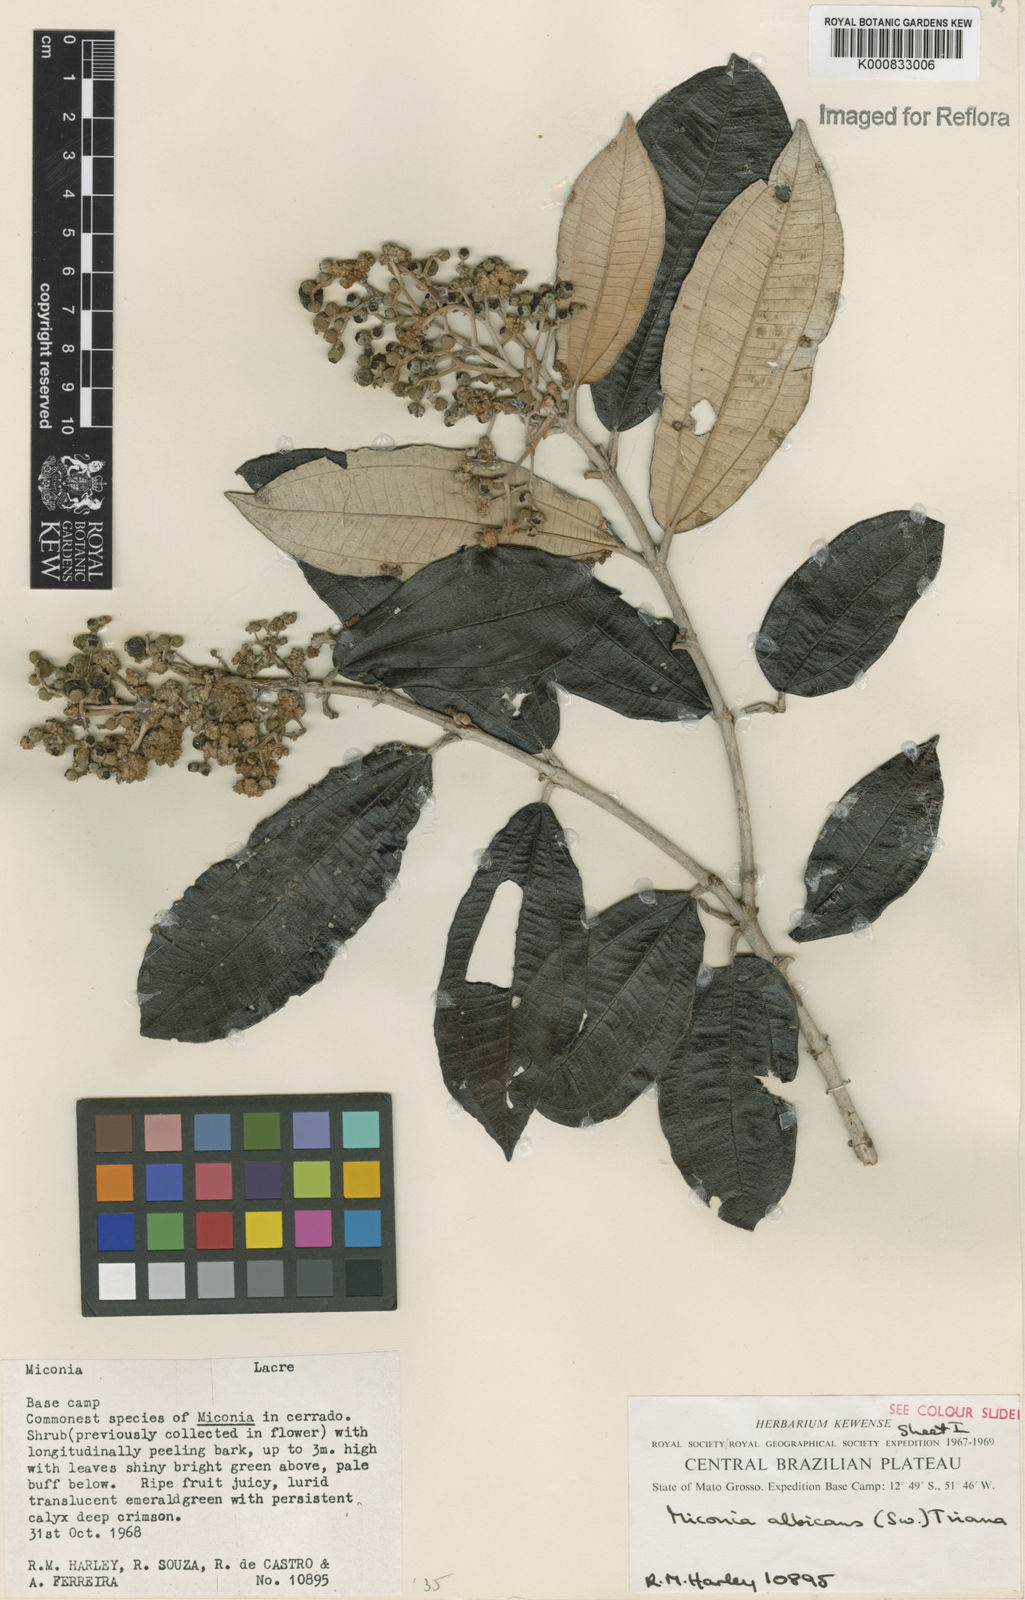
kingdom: Plantae
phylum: Tracheophyta
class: Magnoliopsida
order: Myrtales
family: Melastomataceae
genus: Miconia
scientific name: Miconia albicans
